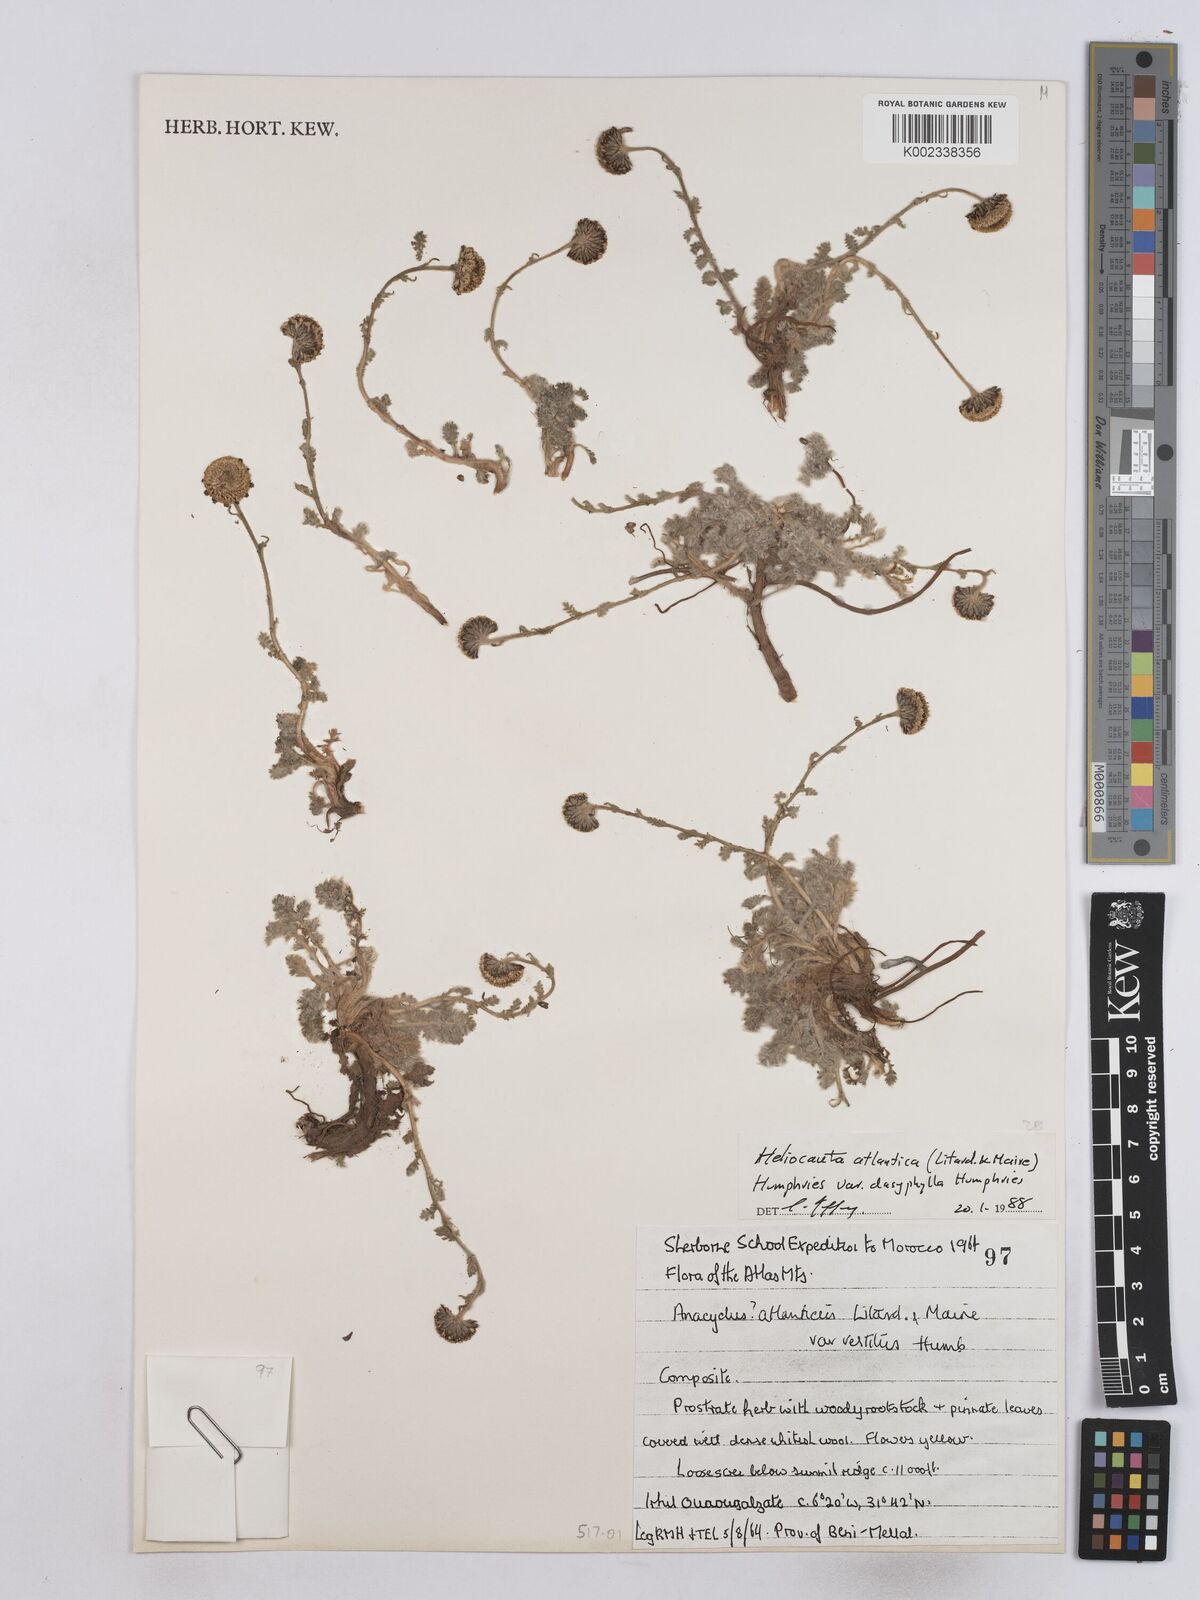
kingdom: Plantae
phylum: Tracheophyta
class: Magnoliopsida
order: Asterales
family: Asteraceae
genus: Heliocauta
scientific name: Heliocauta atlantica
